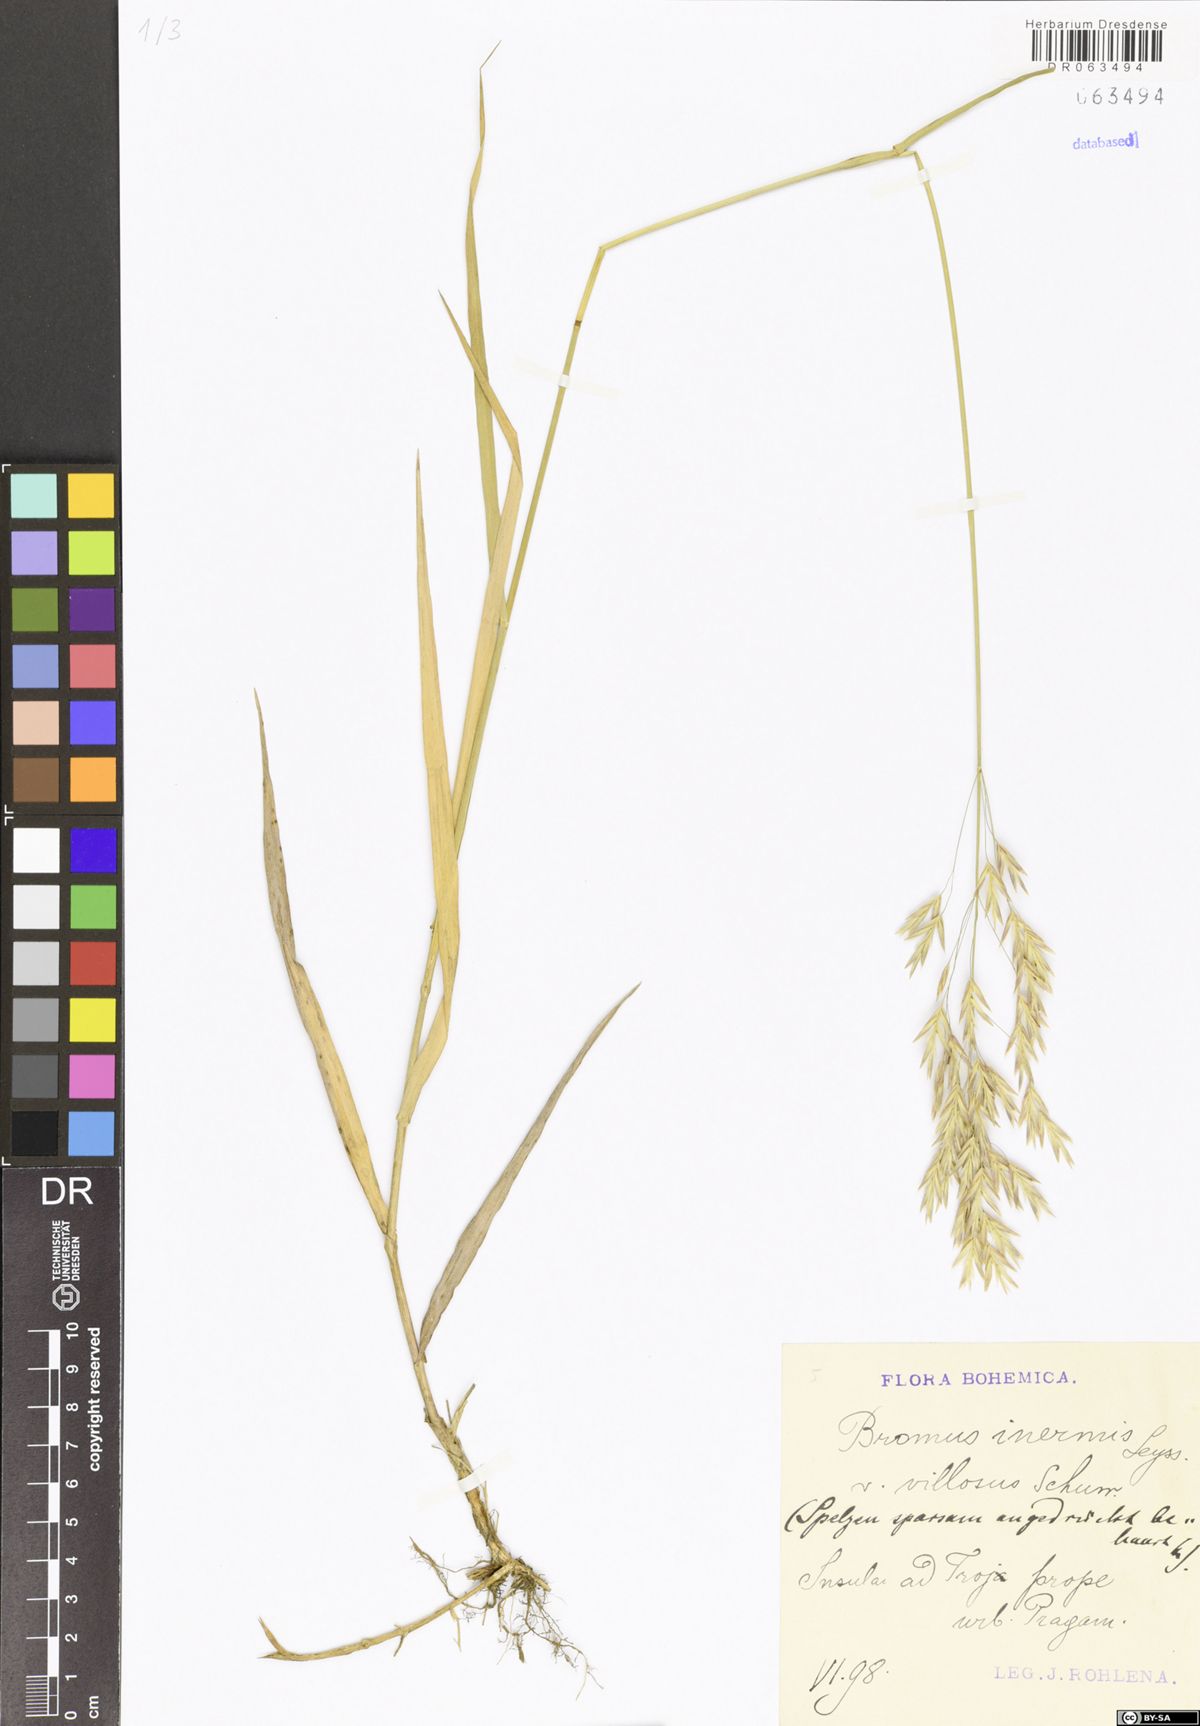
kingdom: Plantae
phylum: Tracheophyta
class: Liliopsida
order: Poales
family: Poaceae
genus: Bromus
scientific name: Bromus inermis
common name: Smooth brome
